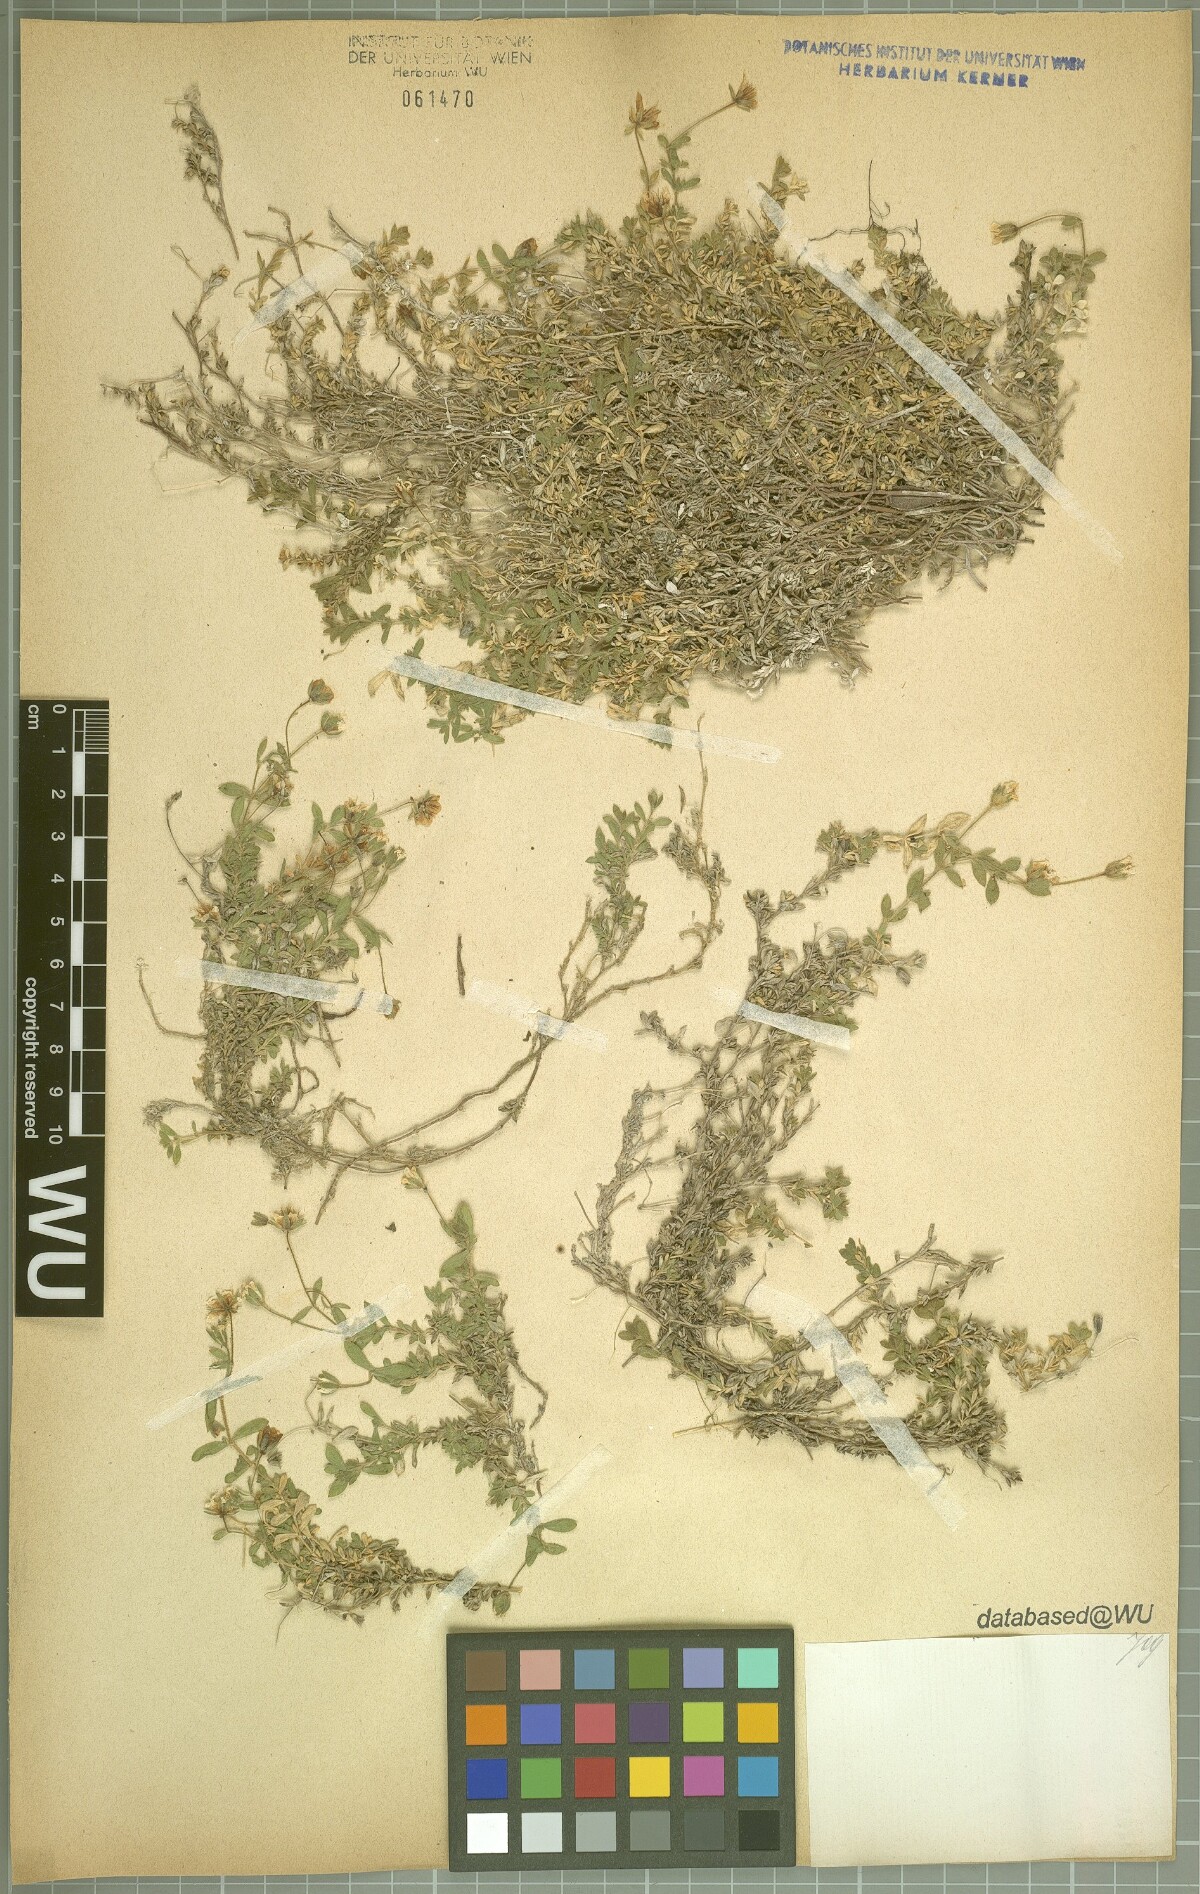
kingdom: Plantae
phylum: Tracheophyta
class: Magnoliopsida
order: Caryophyllales
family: Caryophyllaceae
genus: Arenaria
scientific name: Arenaria huteri
